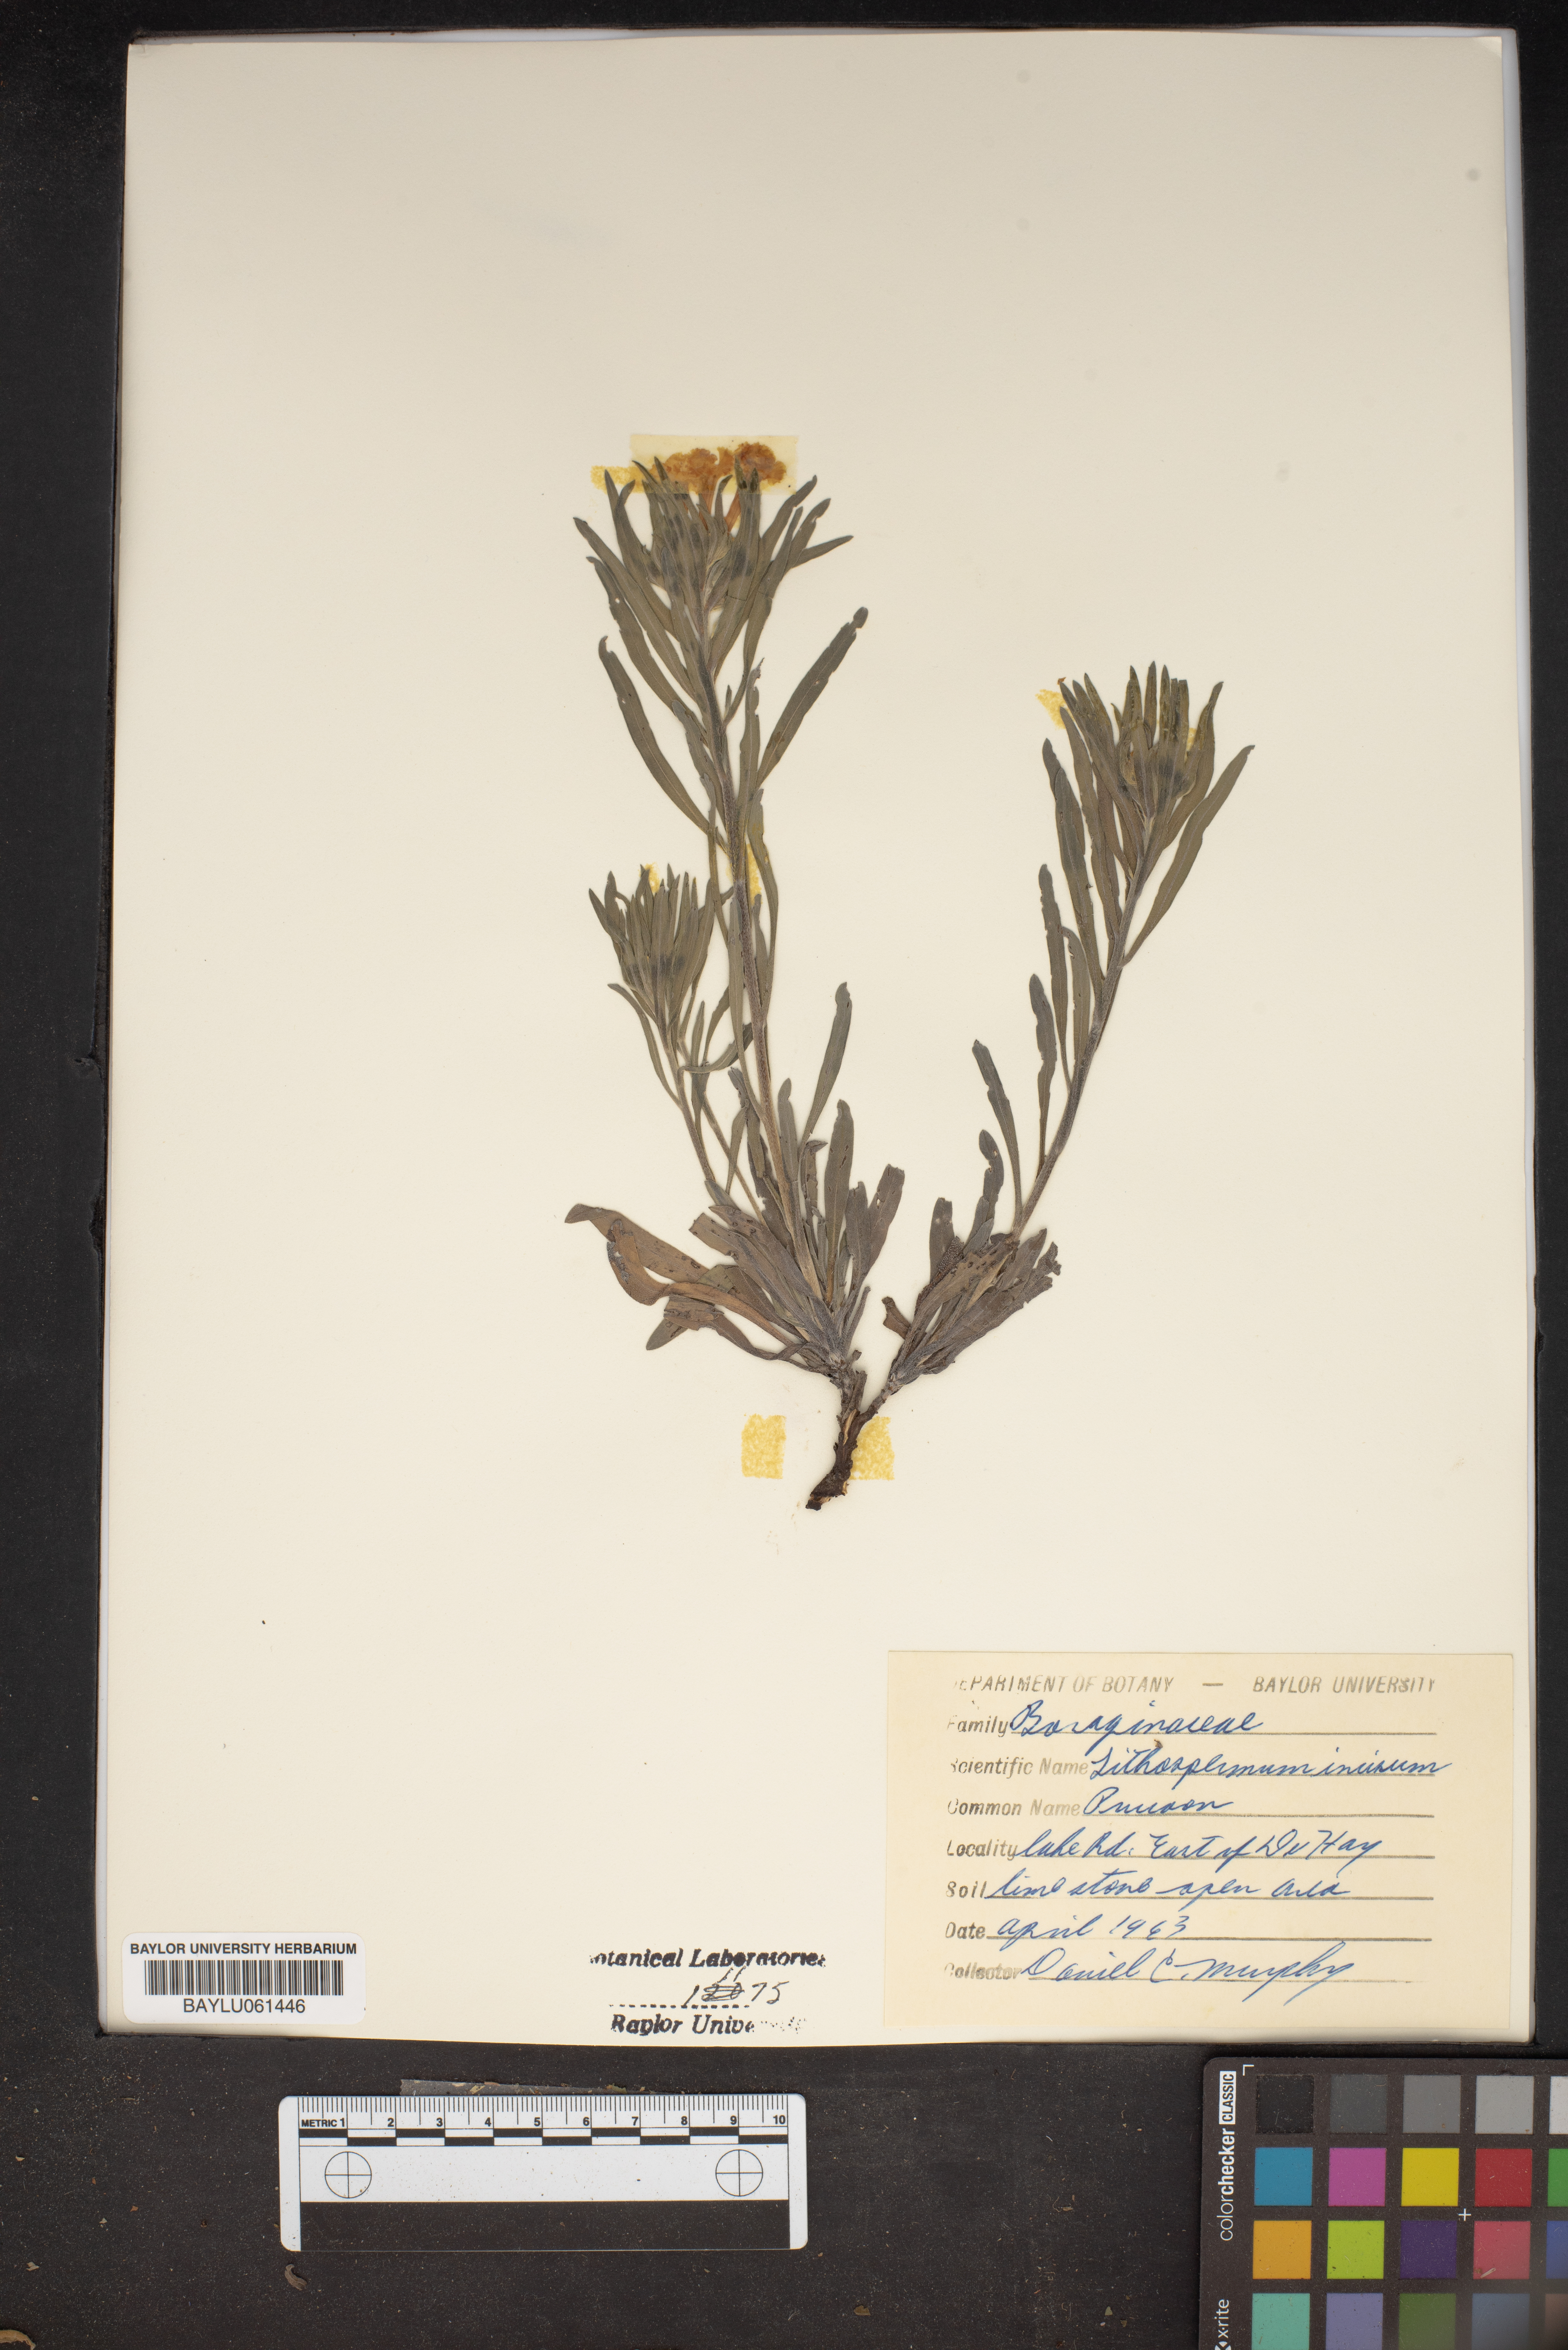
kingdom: Plantae
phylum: Tracheophyta
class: Magnoliopsida
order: Boraginales
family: Boraginaceae
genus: Lithospermum
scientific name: Lithospermum incisum
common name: Fringed gromwell
